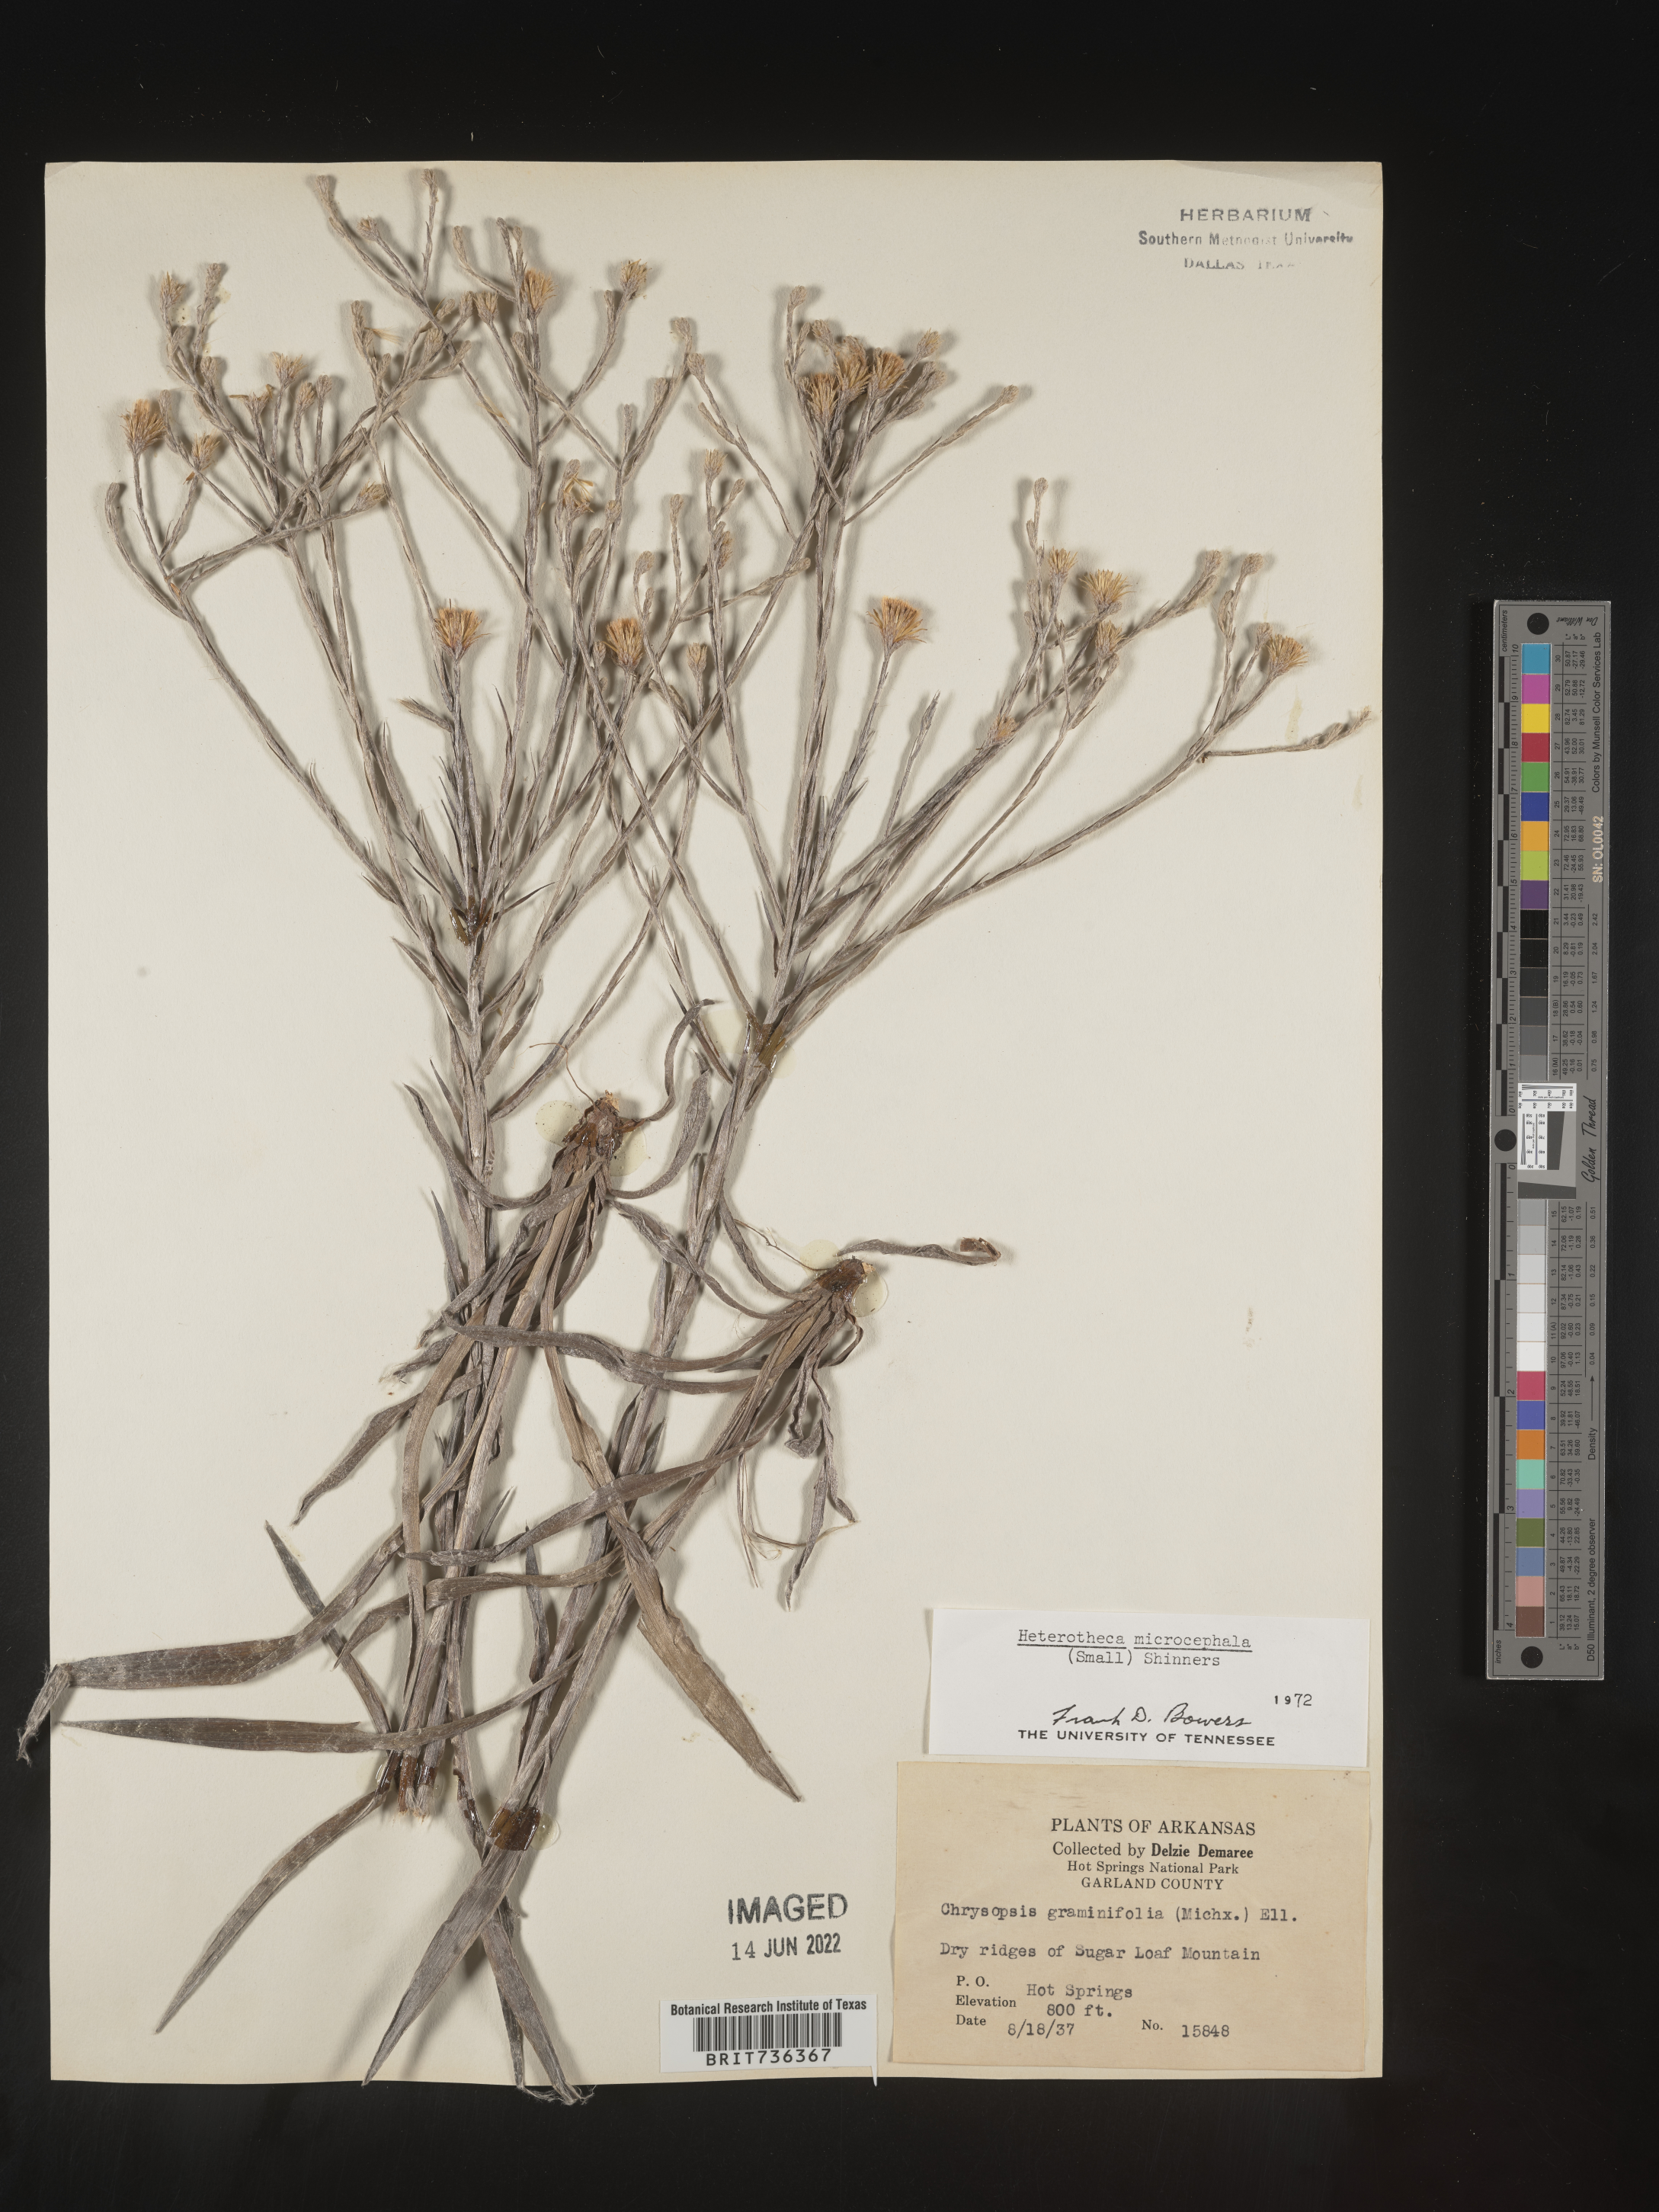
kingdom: Plantae
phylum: Tracheophyta
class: Magnoliopsida
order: Asterales
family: Asteraceae
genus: Pityopsis
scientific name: Pityopsis tenuifolia
